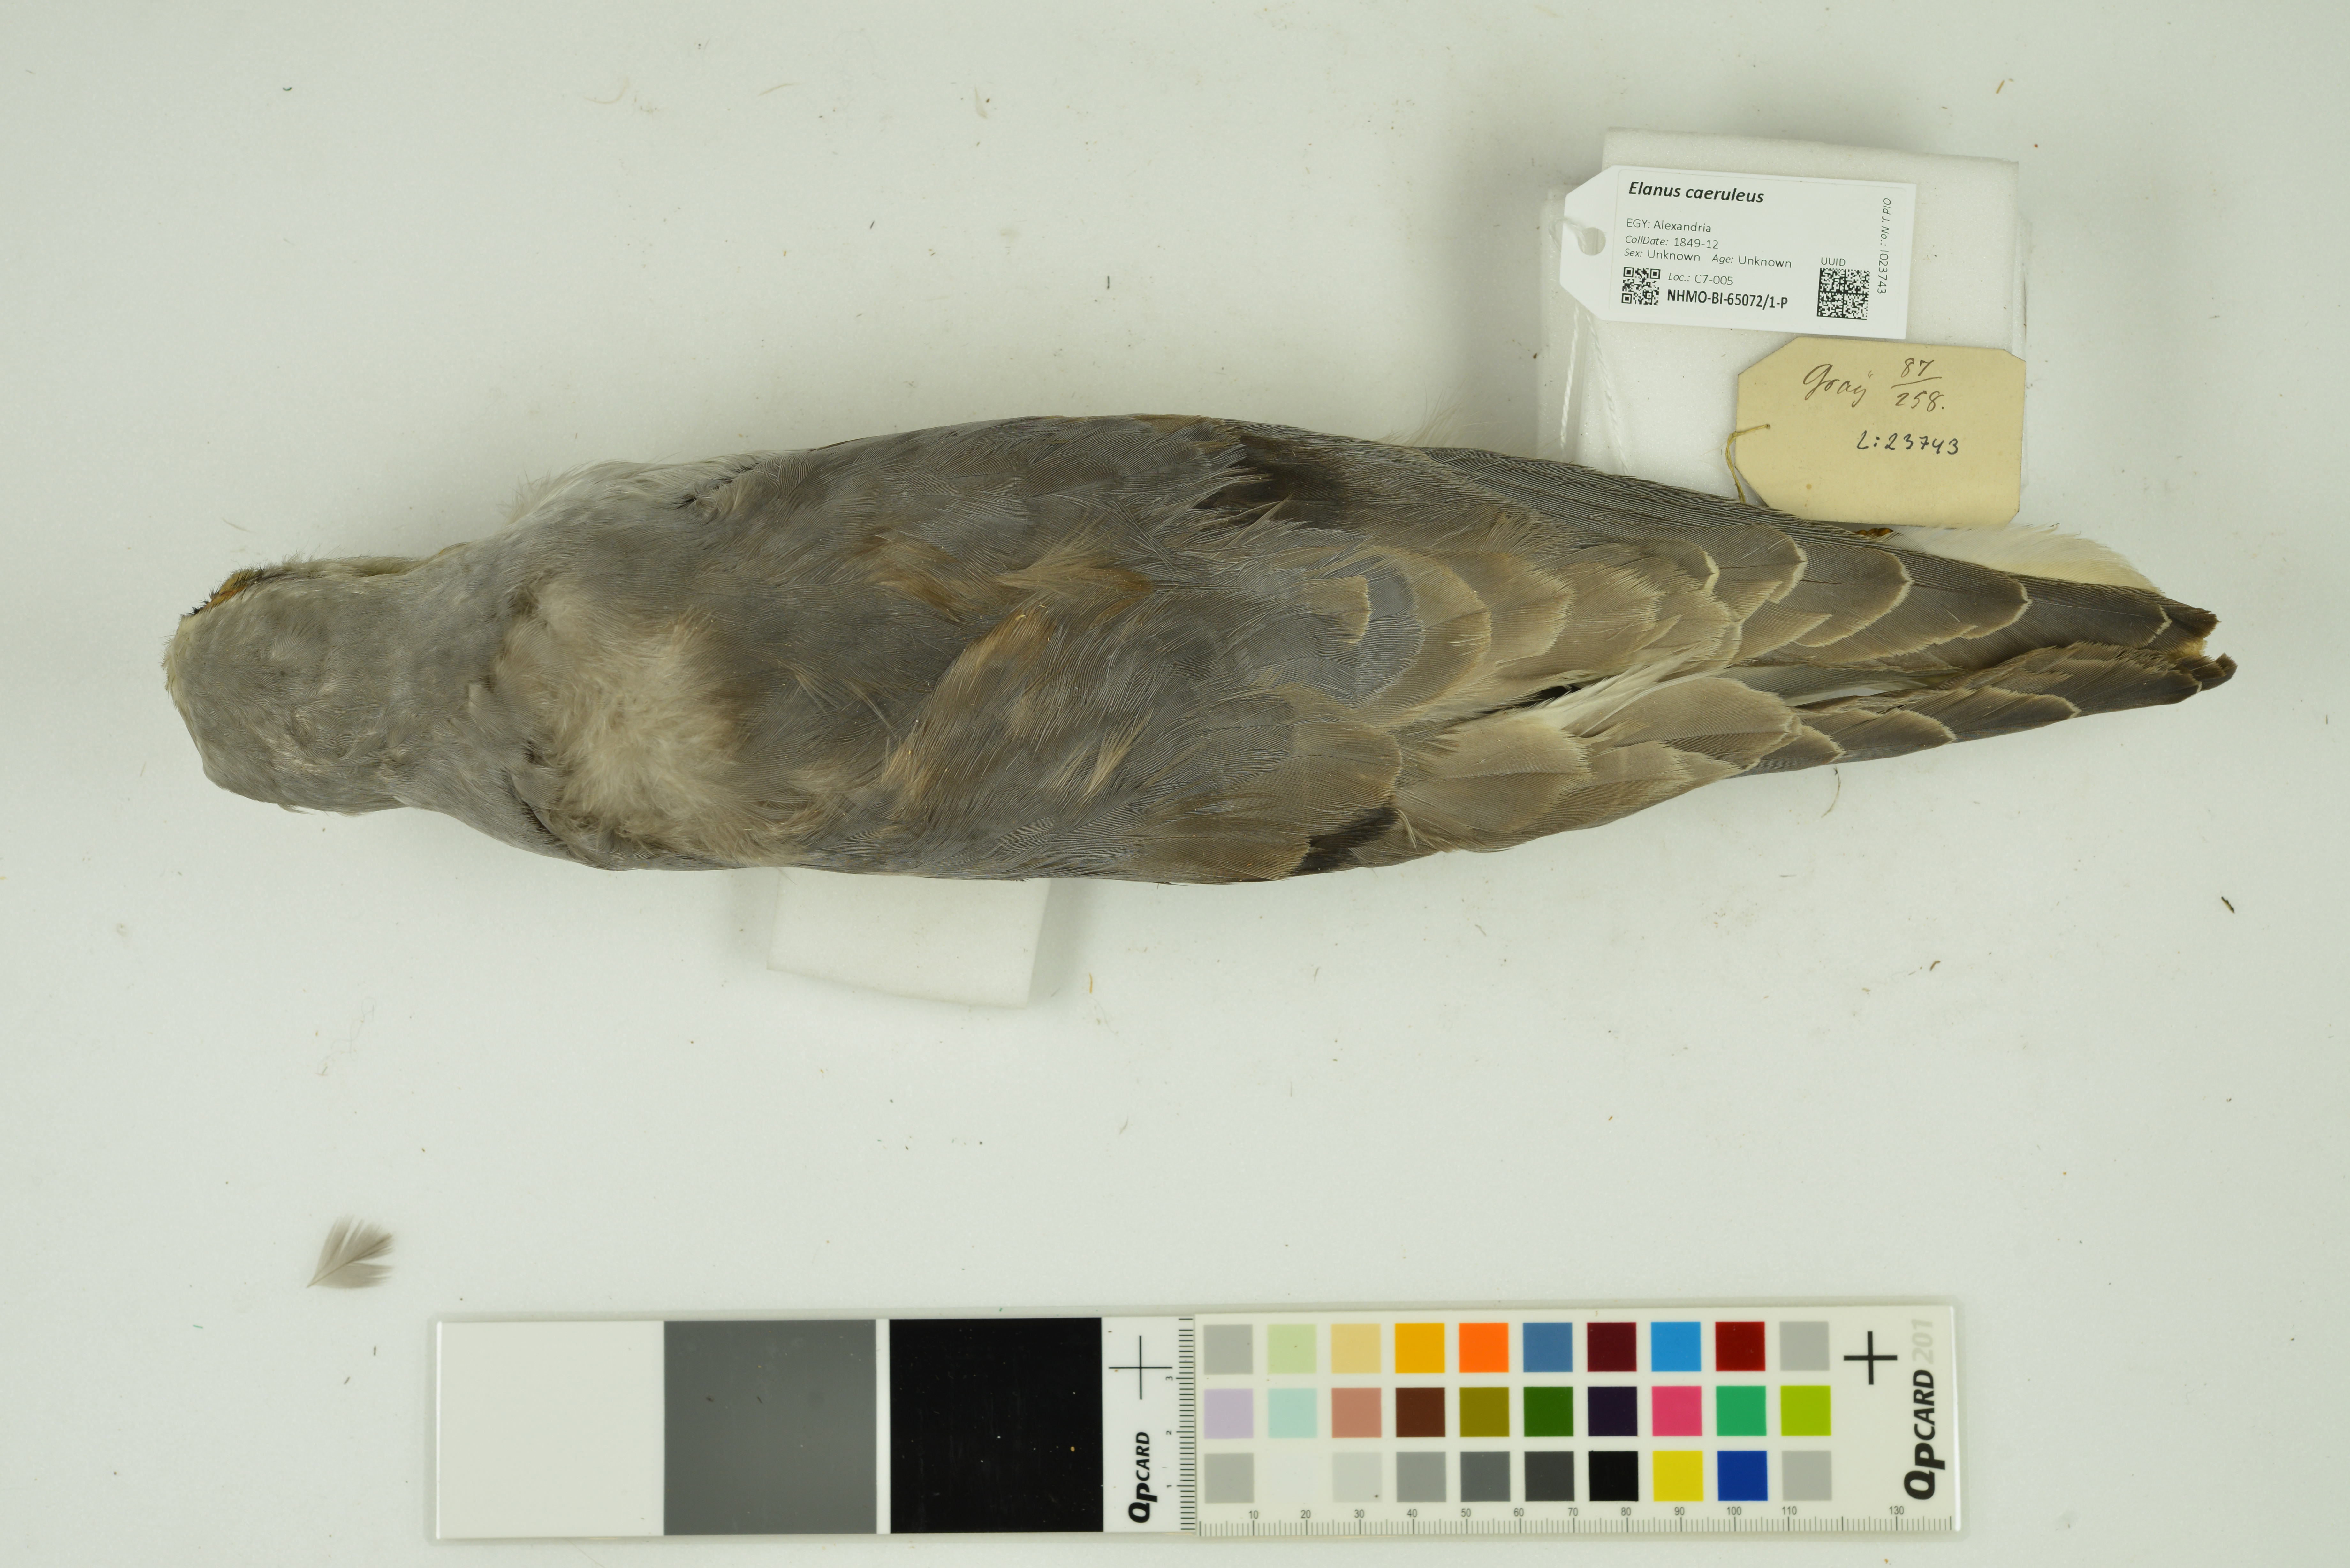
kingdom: Animalia
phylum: Chordata
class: Aves
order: Accipitriformes
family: Accipitridae
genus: Elanus
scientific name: Elanus caeruleus
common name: Black-winged kite
